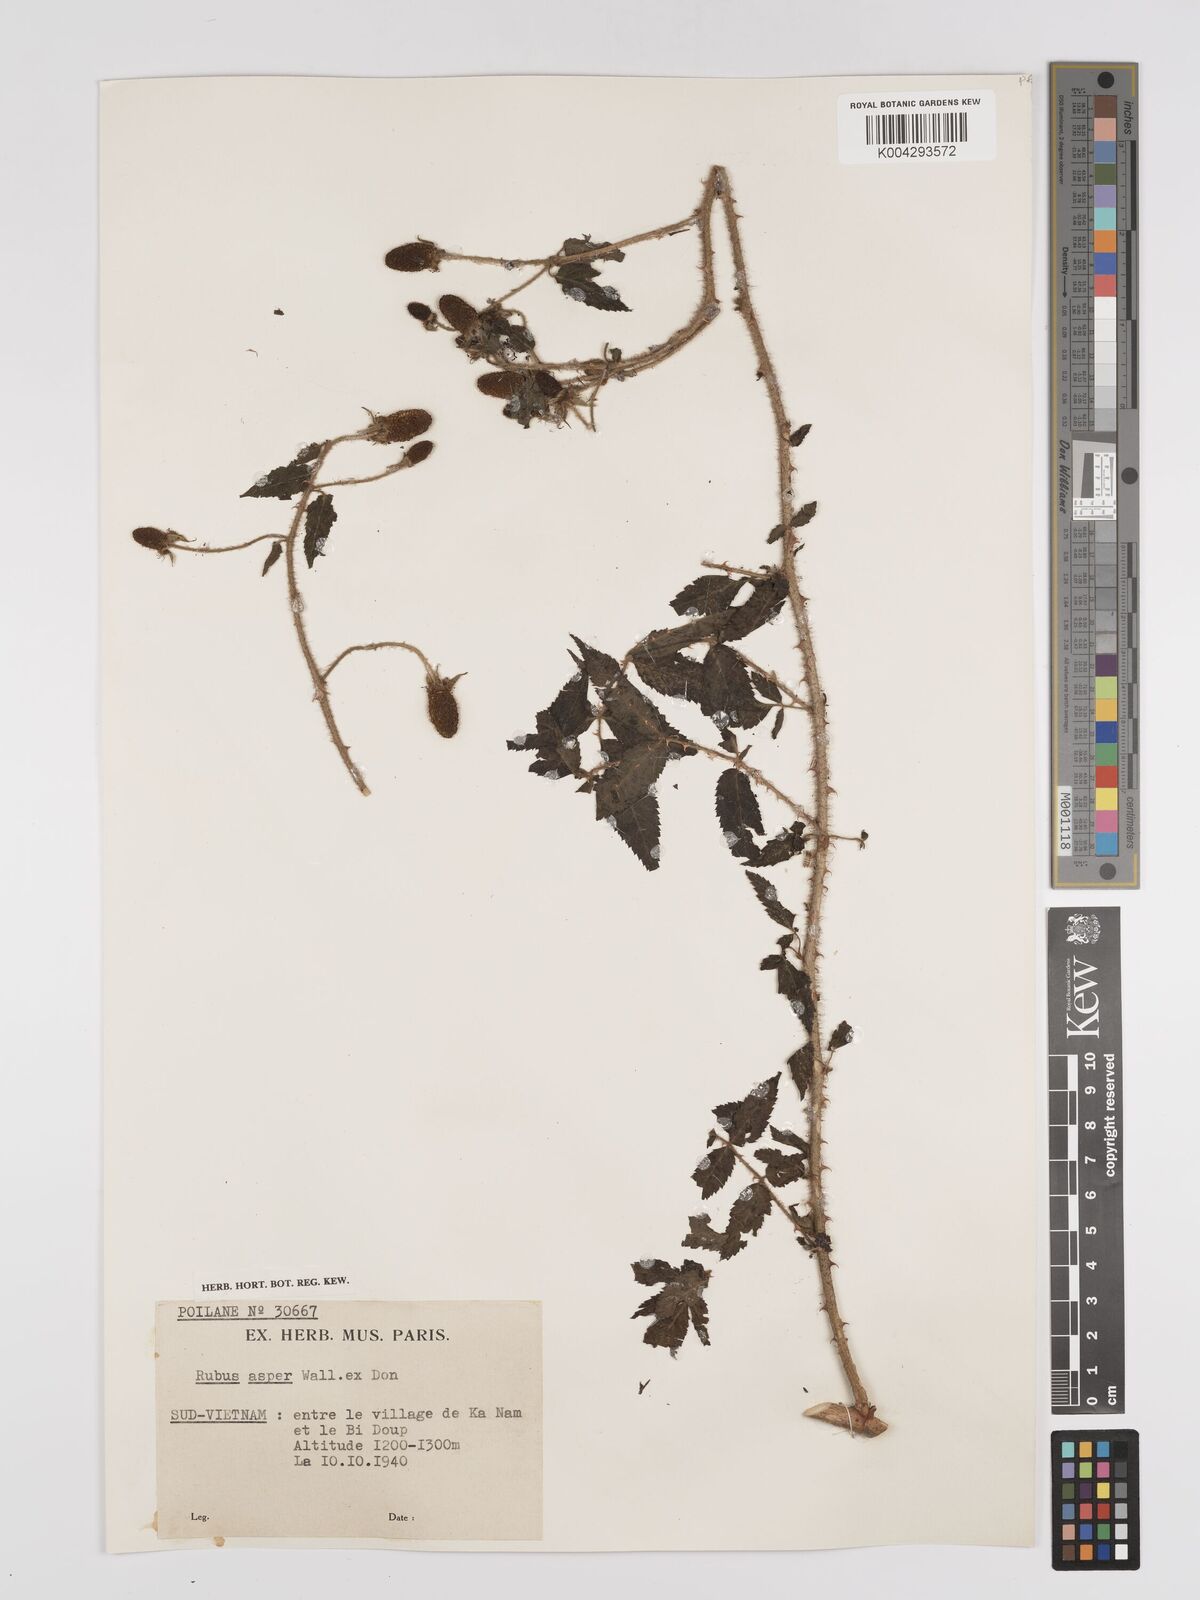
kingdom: Plantae
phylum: Tracheophyta
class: Magnoliopsida
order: Rosales
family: Rosaceae
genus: Rubus
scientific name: Rubus sumatranus
